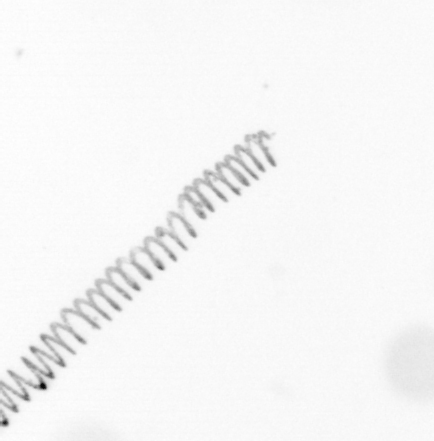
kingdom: Chromista
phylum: Ochrophyta
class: Bacillariophyceae
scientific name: Bacillariophyceae
